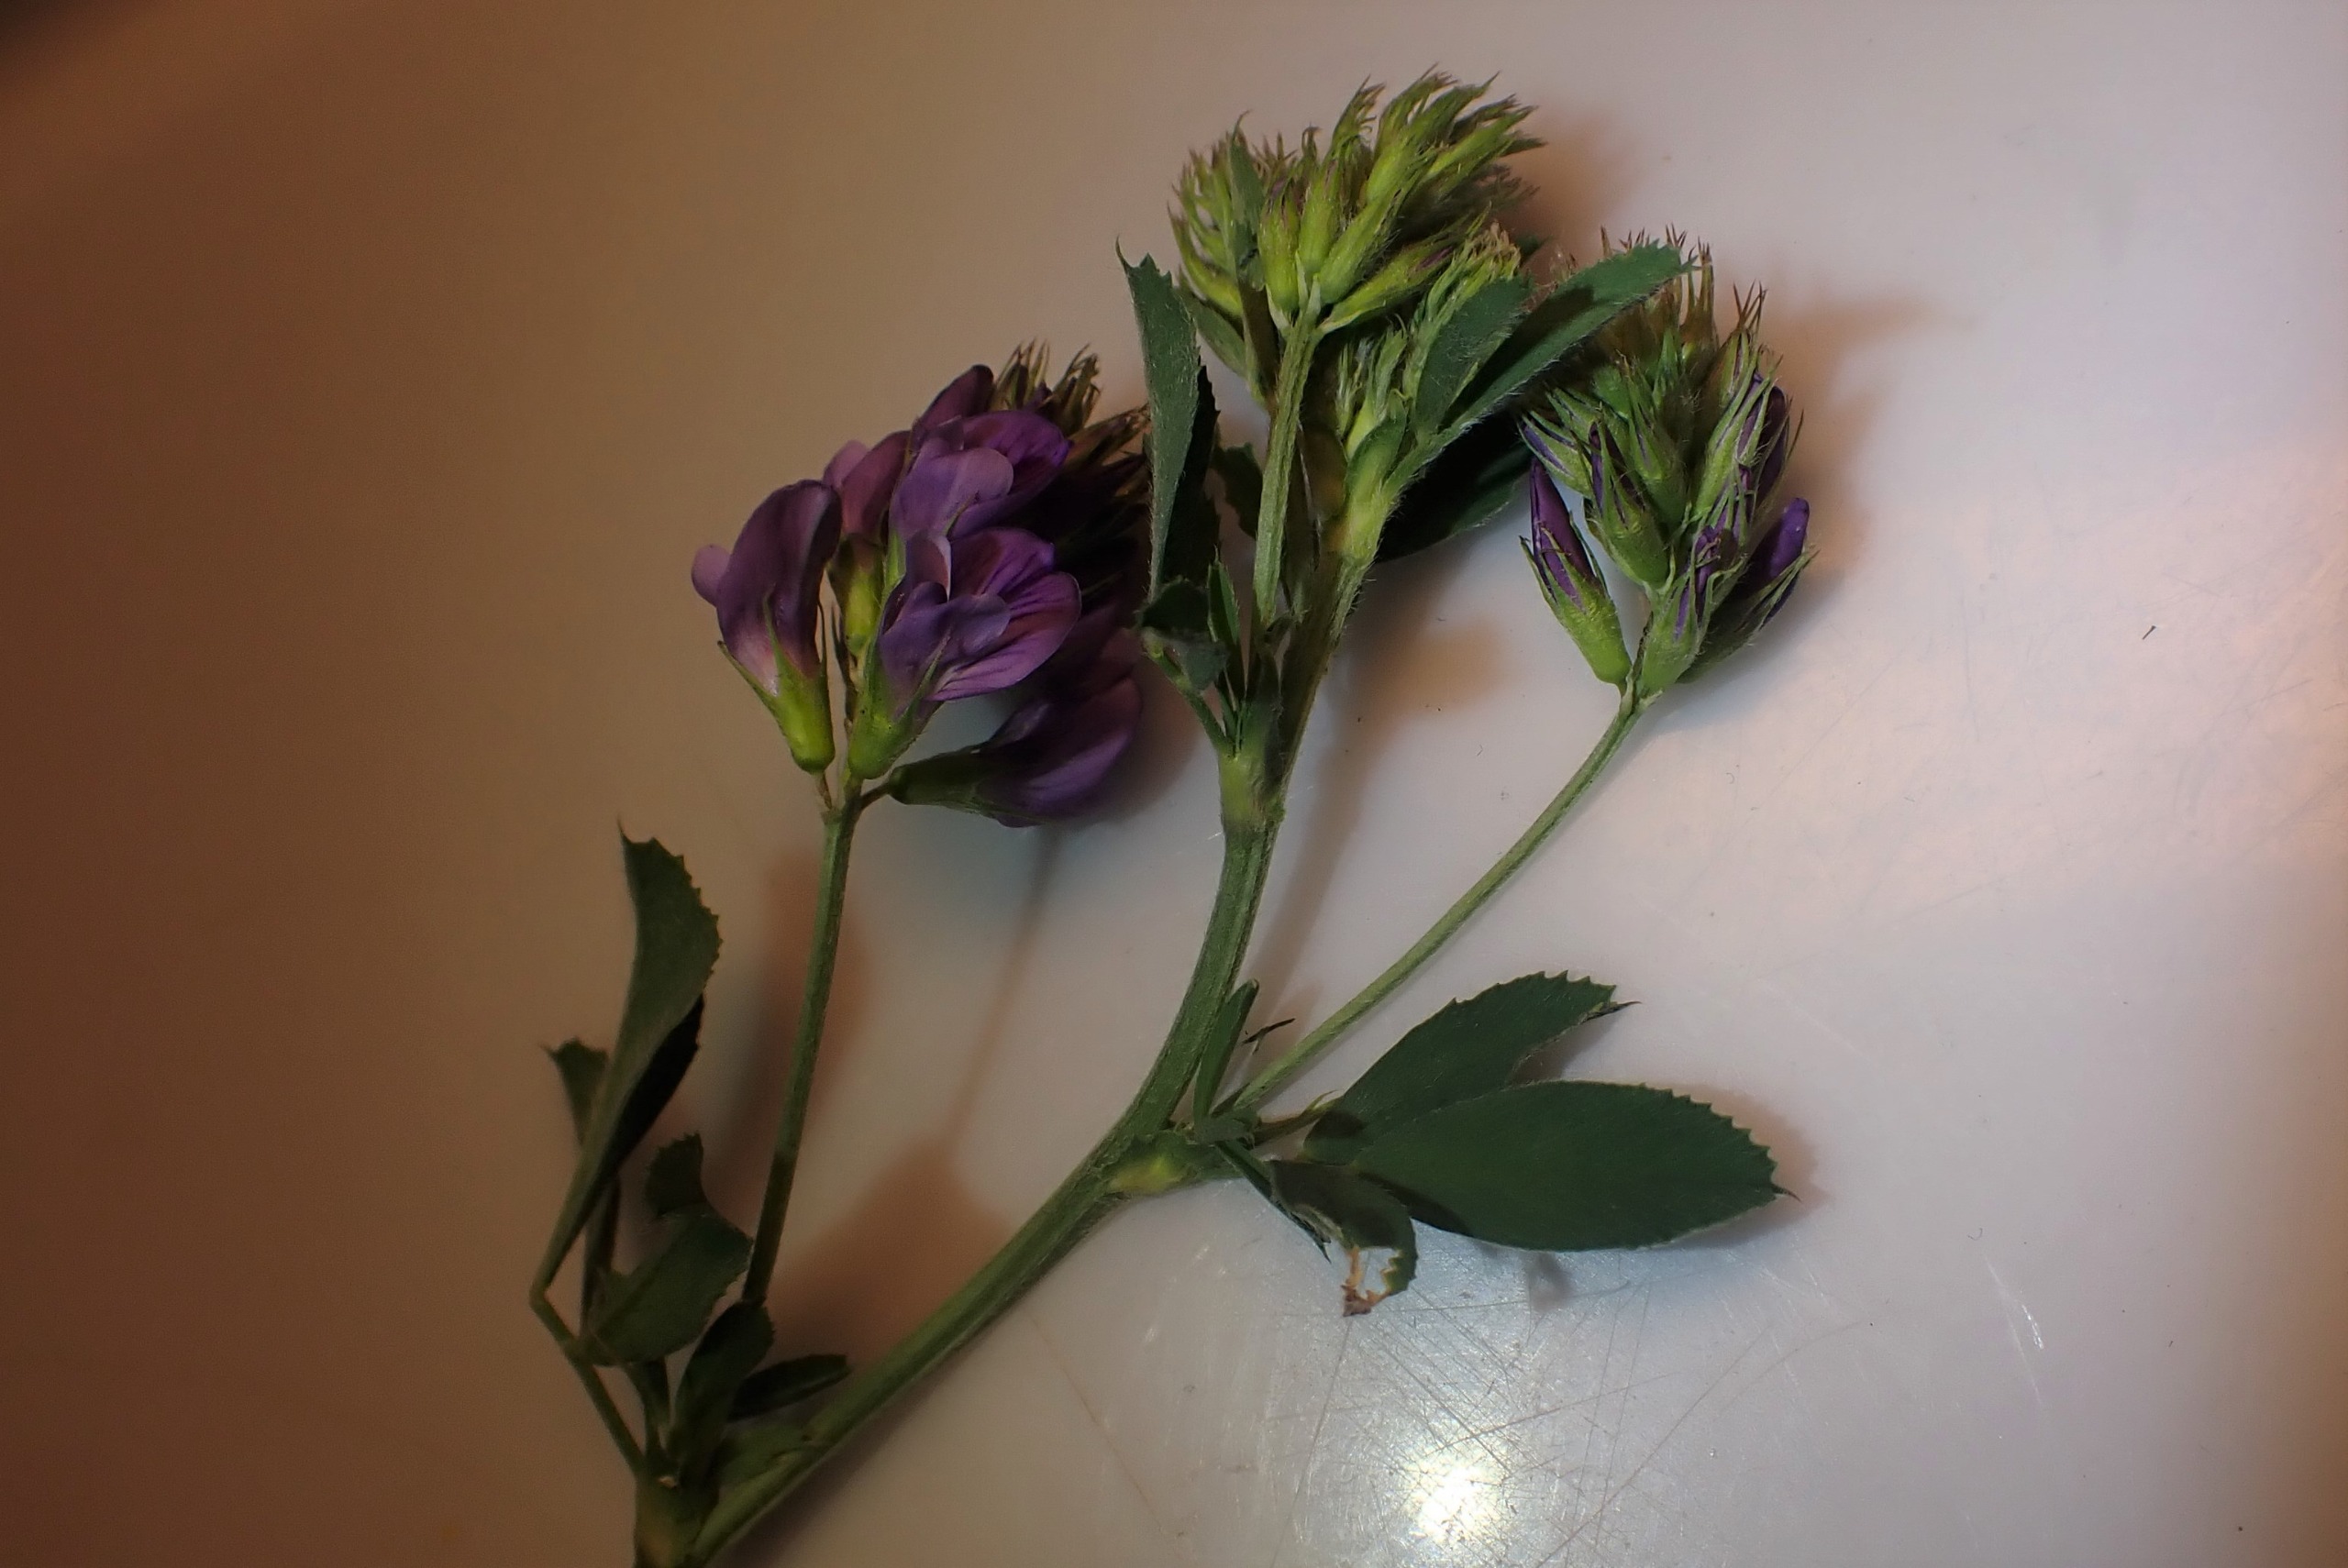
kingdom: Plantae
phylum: Tracheophyta
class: Magnoliopsida
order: Fabales
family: Fabaceae
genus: Medicago
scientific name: Medicago sativa
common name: Lucerne
